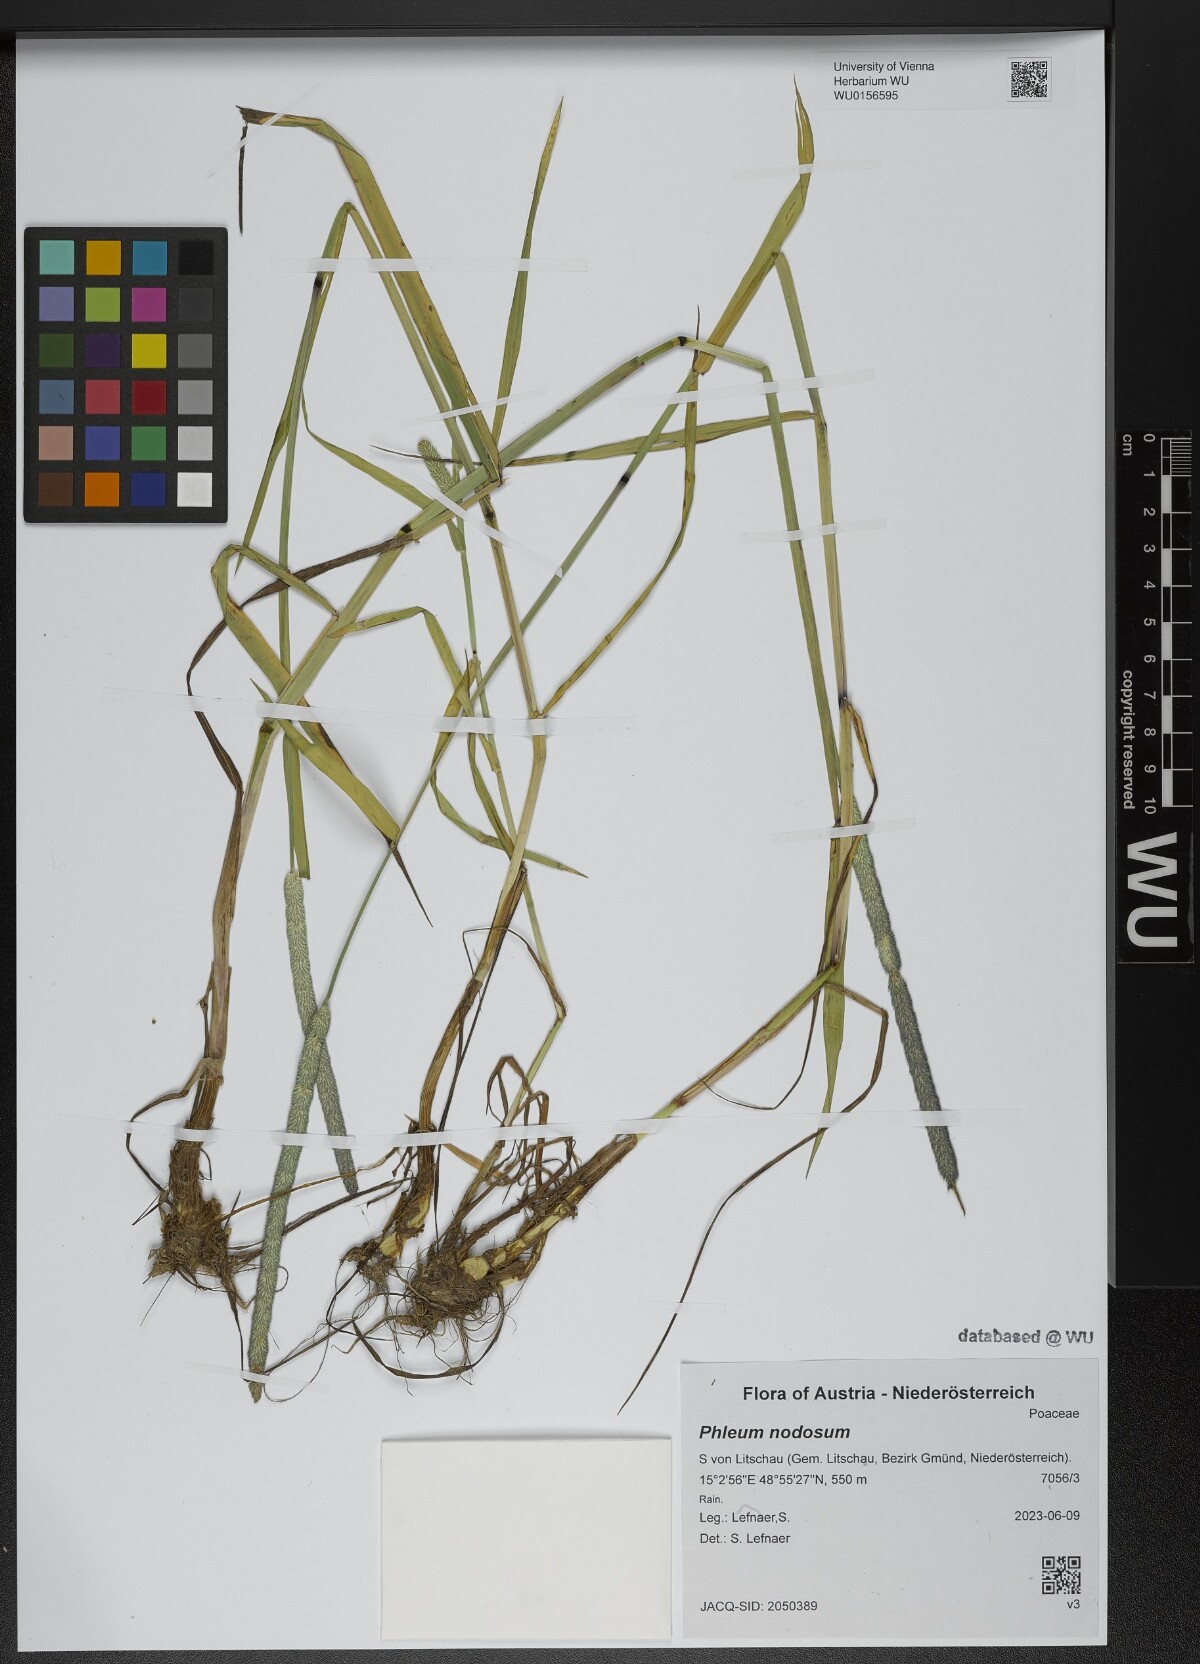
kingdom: Plantae
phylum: Tracheophyta
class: Liliopsida
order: Poales
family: Poaceae
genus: Phleum
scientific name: Phleum pratense
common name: Timothy grass
